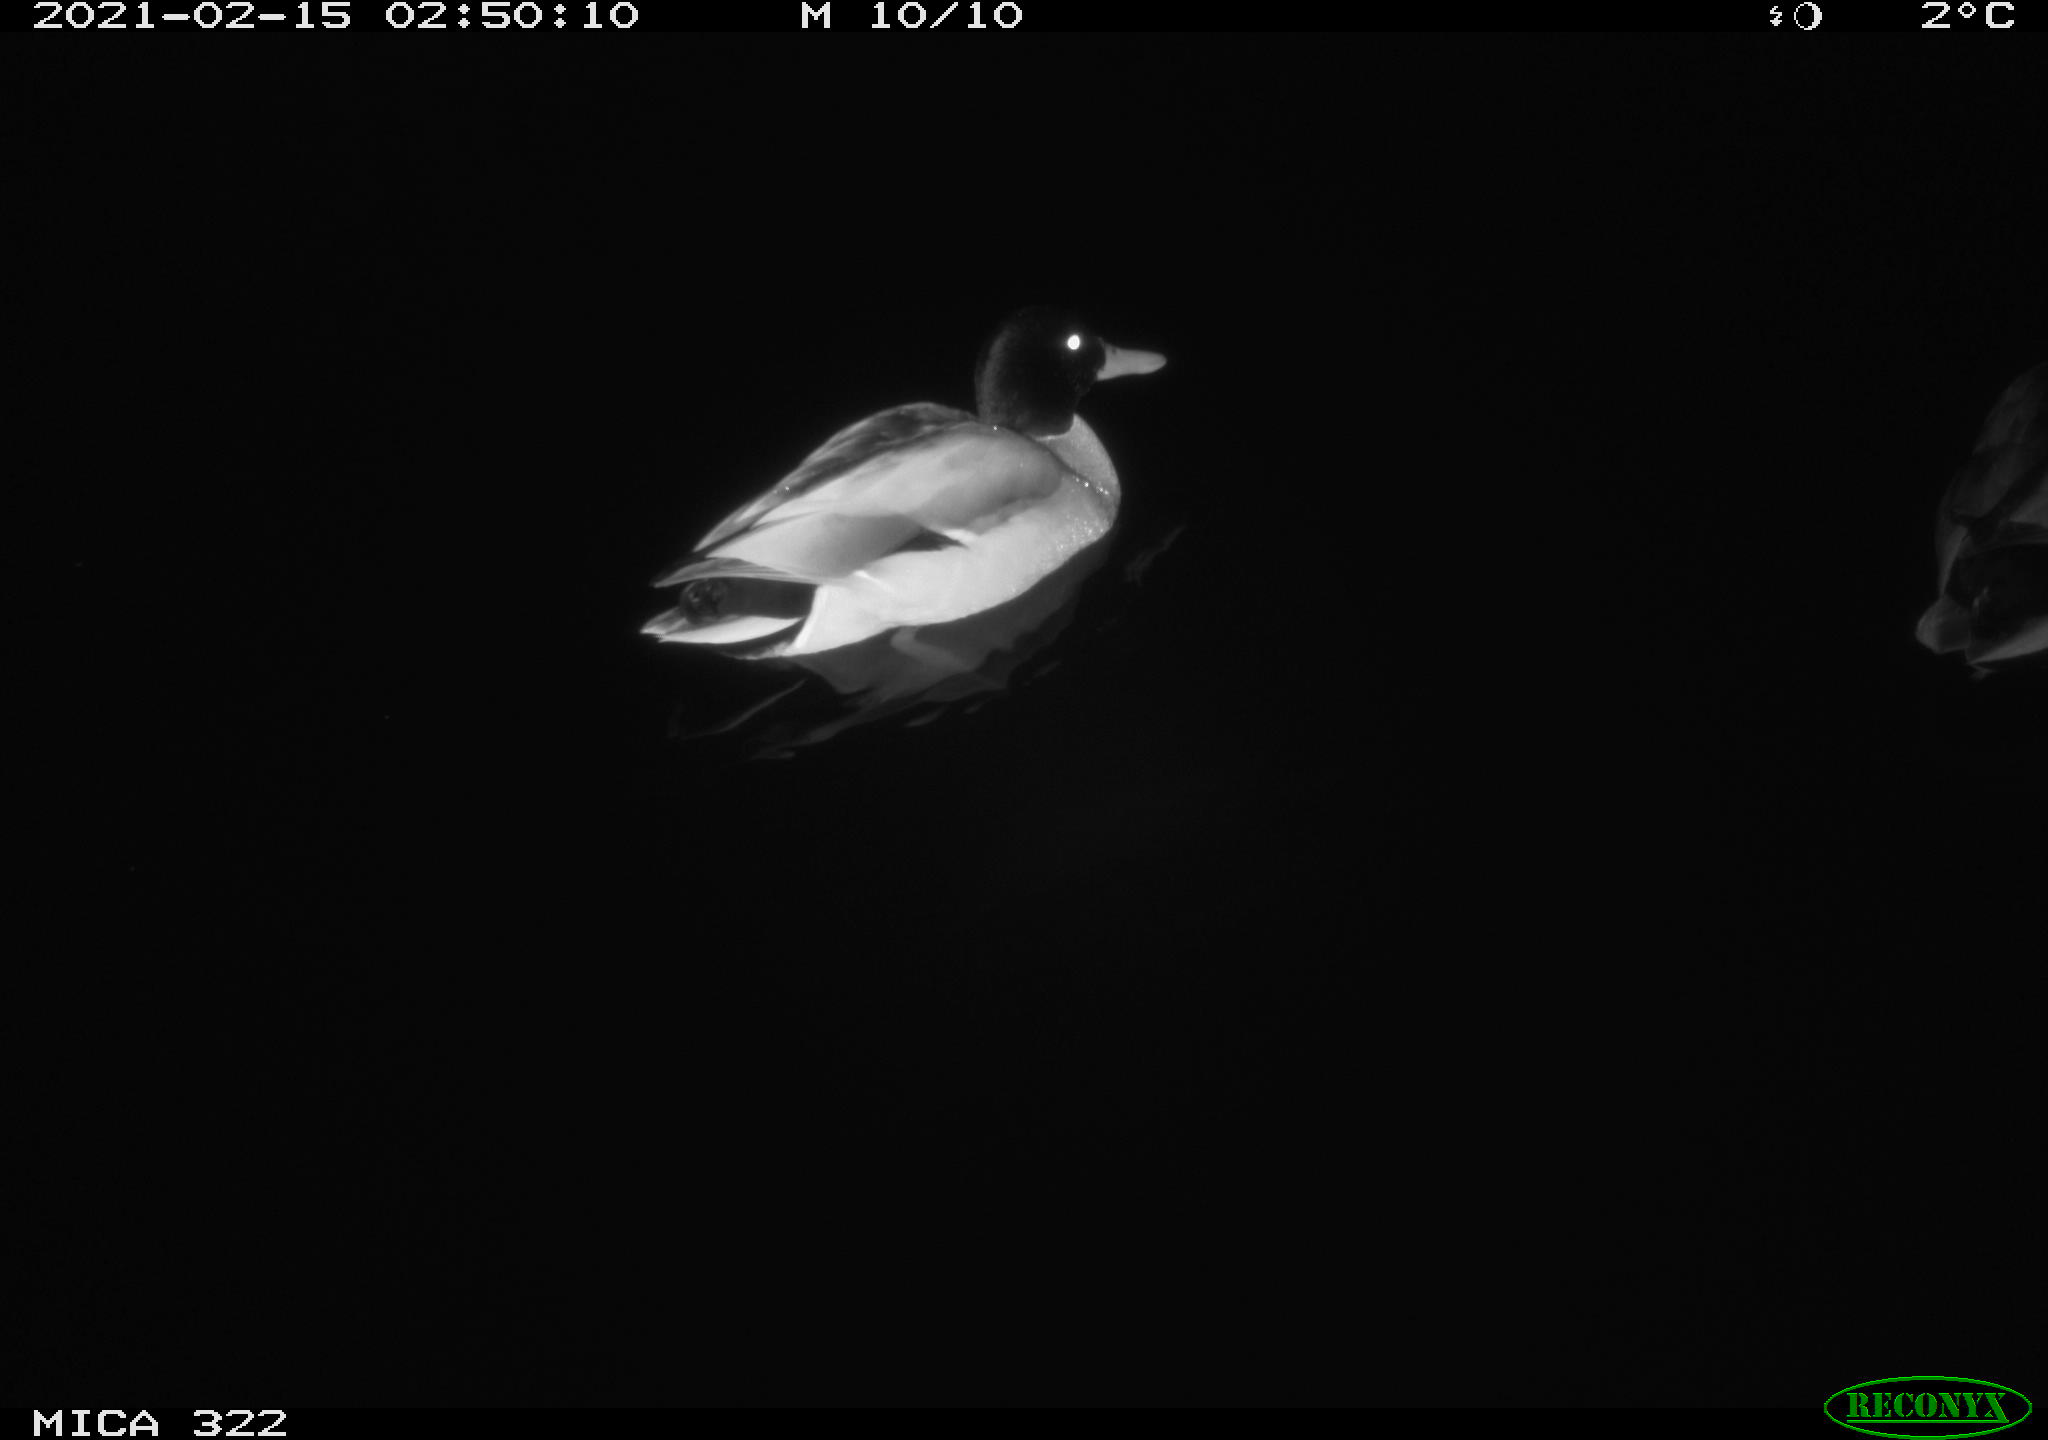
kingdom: Animalia
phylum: Chordata
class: Aves
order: Anseriformes
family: Anatidae
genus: Anas
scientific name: Anas platyrhynchos
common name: Mallard
